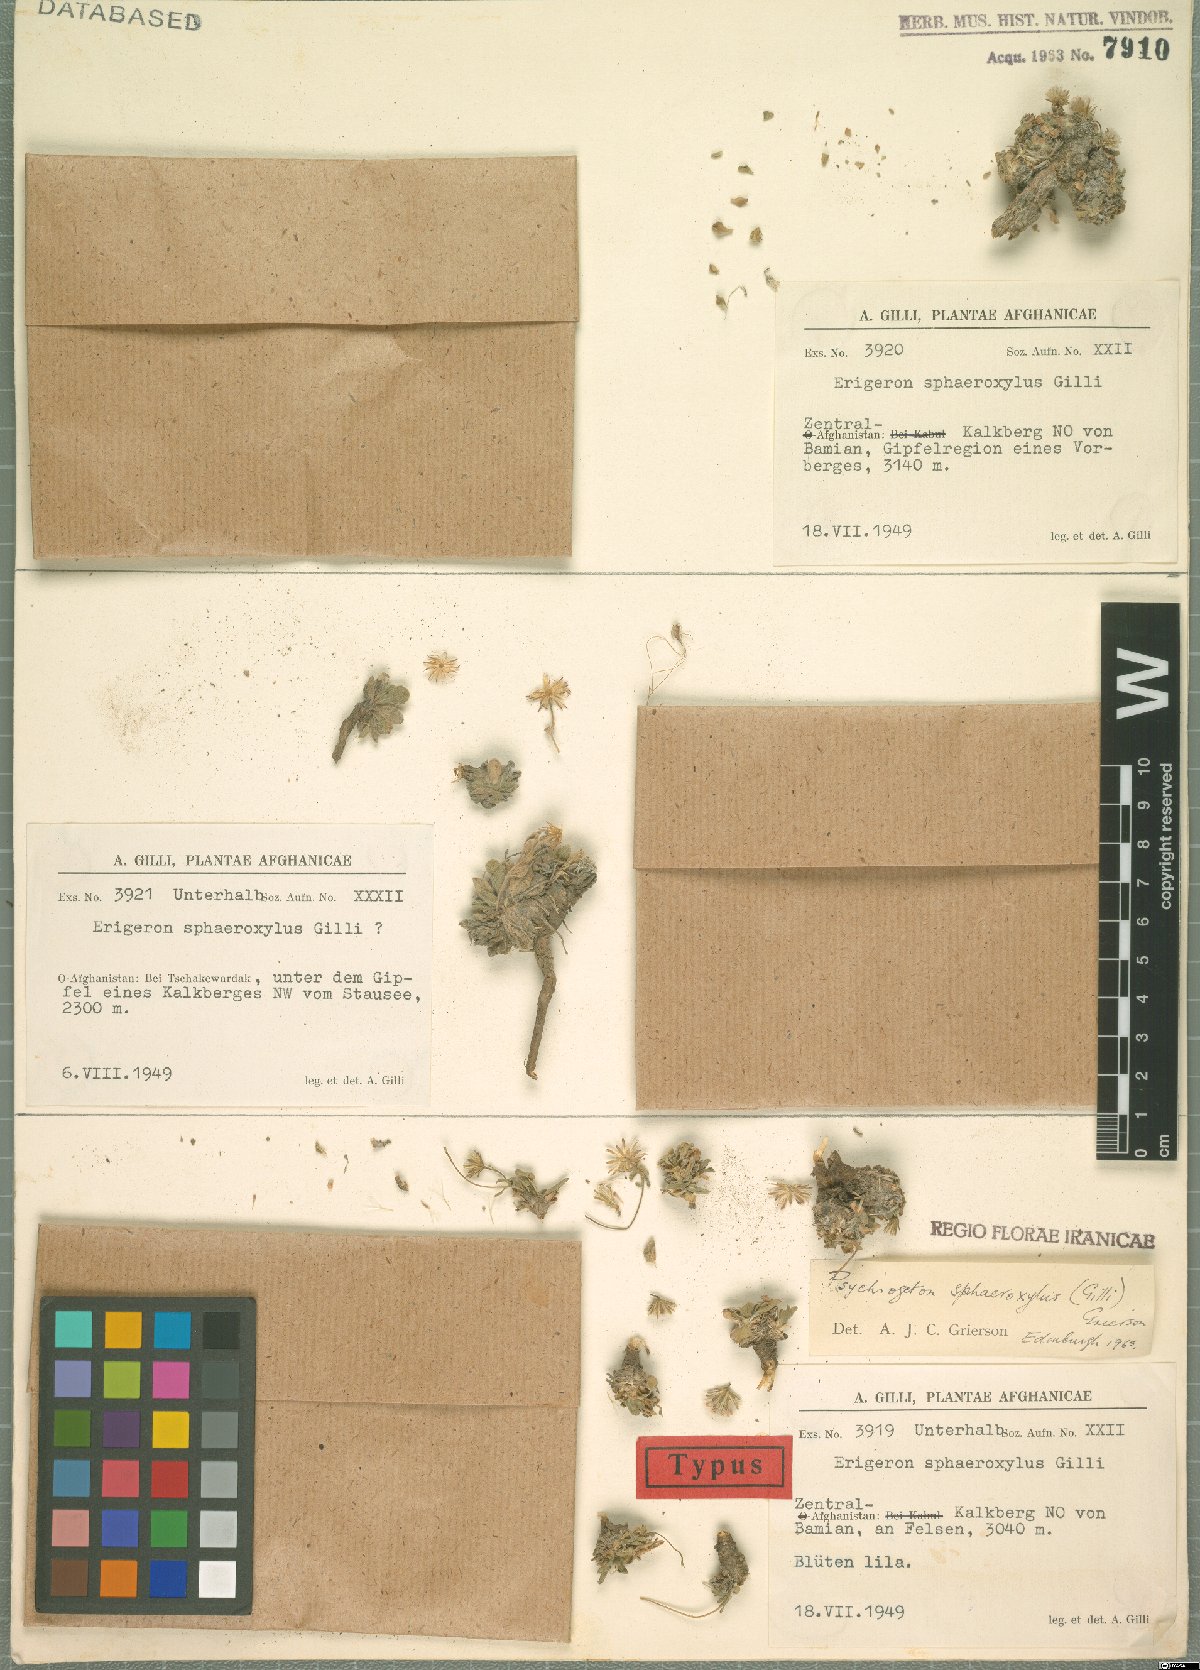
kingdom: Plantae
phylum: Tracheophyta
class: Magnoliopsida
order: Asterales
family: Asteraceae
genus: Psychrogeton
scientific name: Psychrogeton sphaeroxylus
